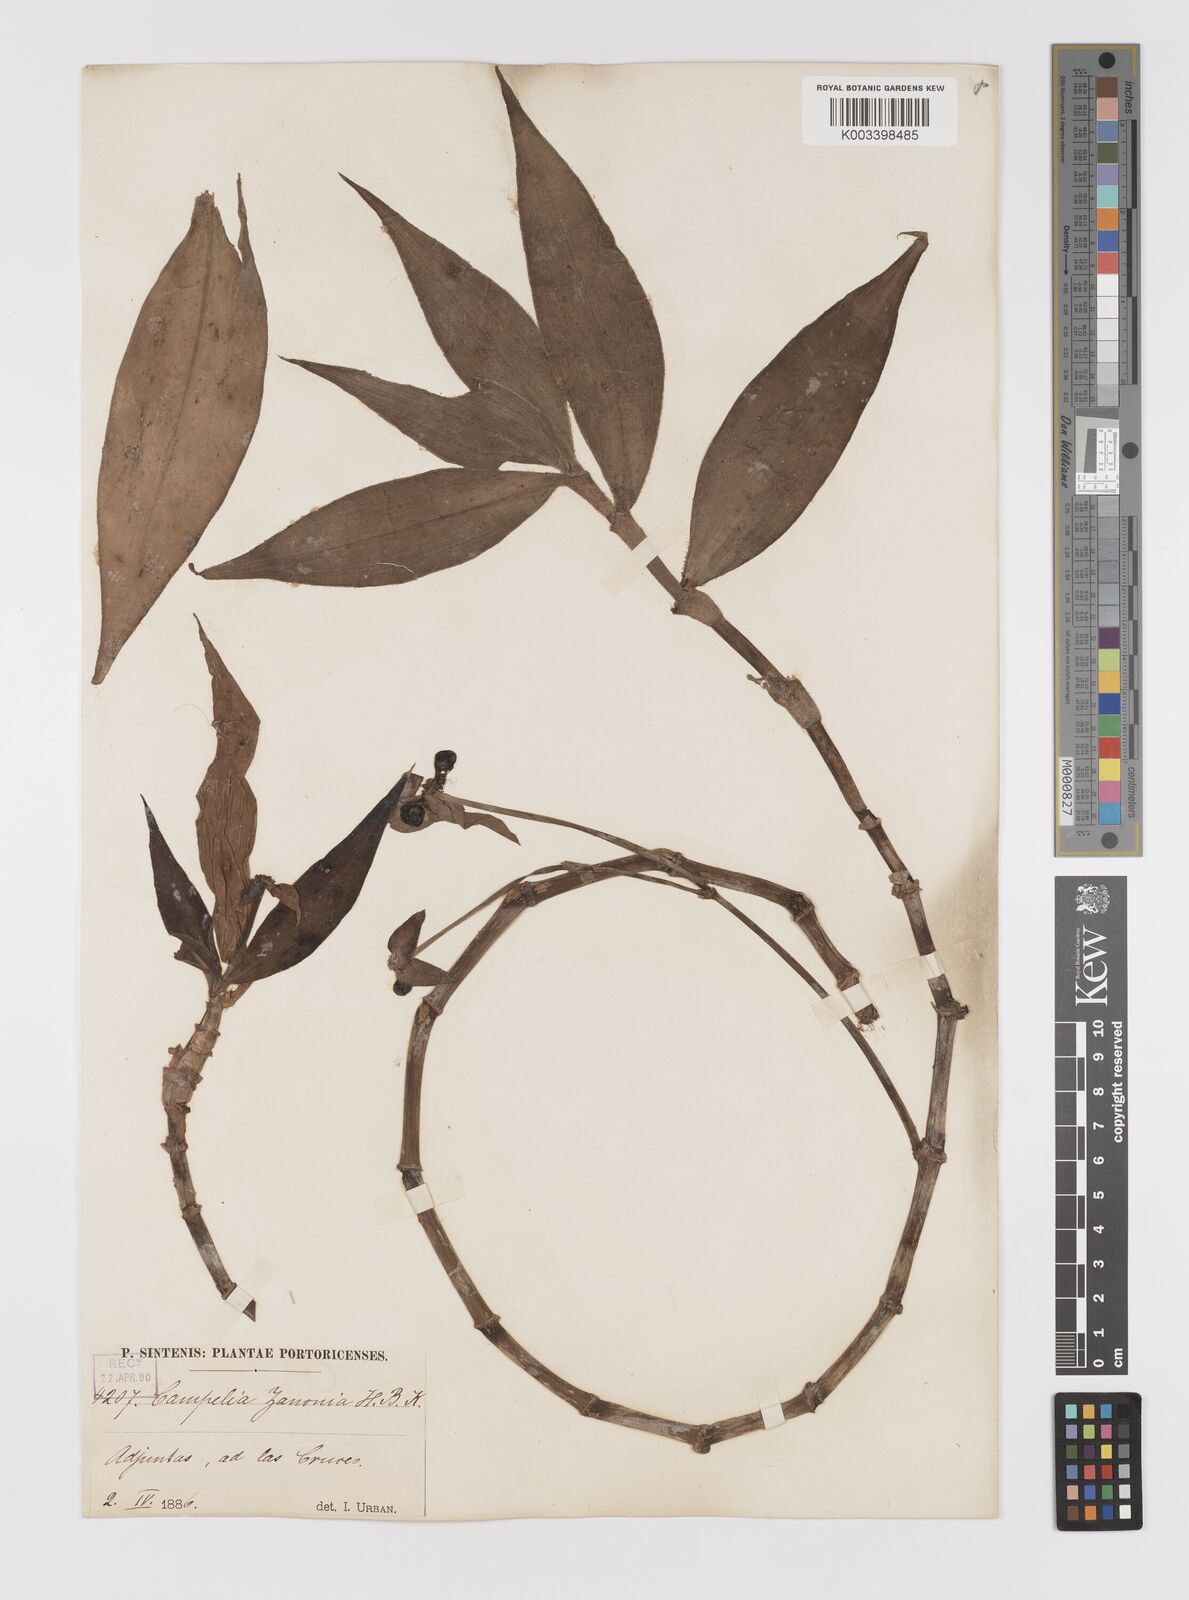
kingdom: Plantae
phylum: Tracheophyta
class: Liliopsida
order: Commelinales
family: Commelinaceae
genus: Tradescantia
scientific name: Tradescantia zanonia
